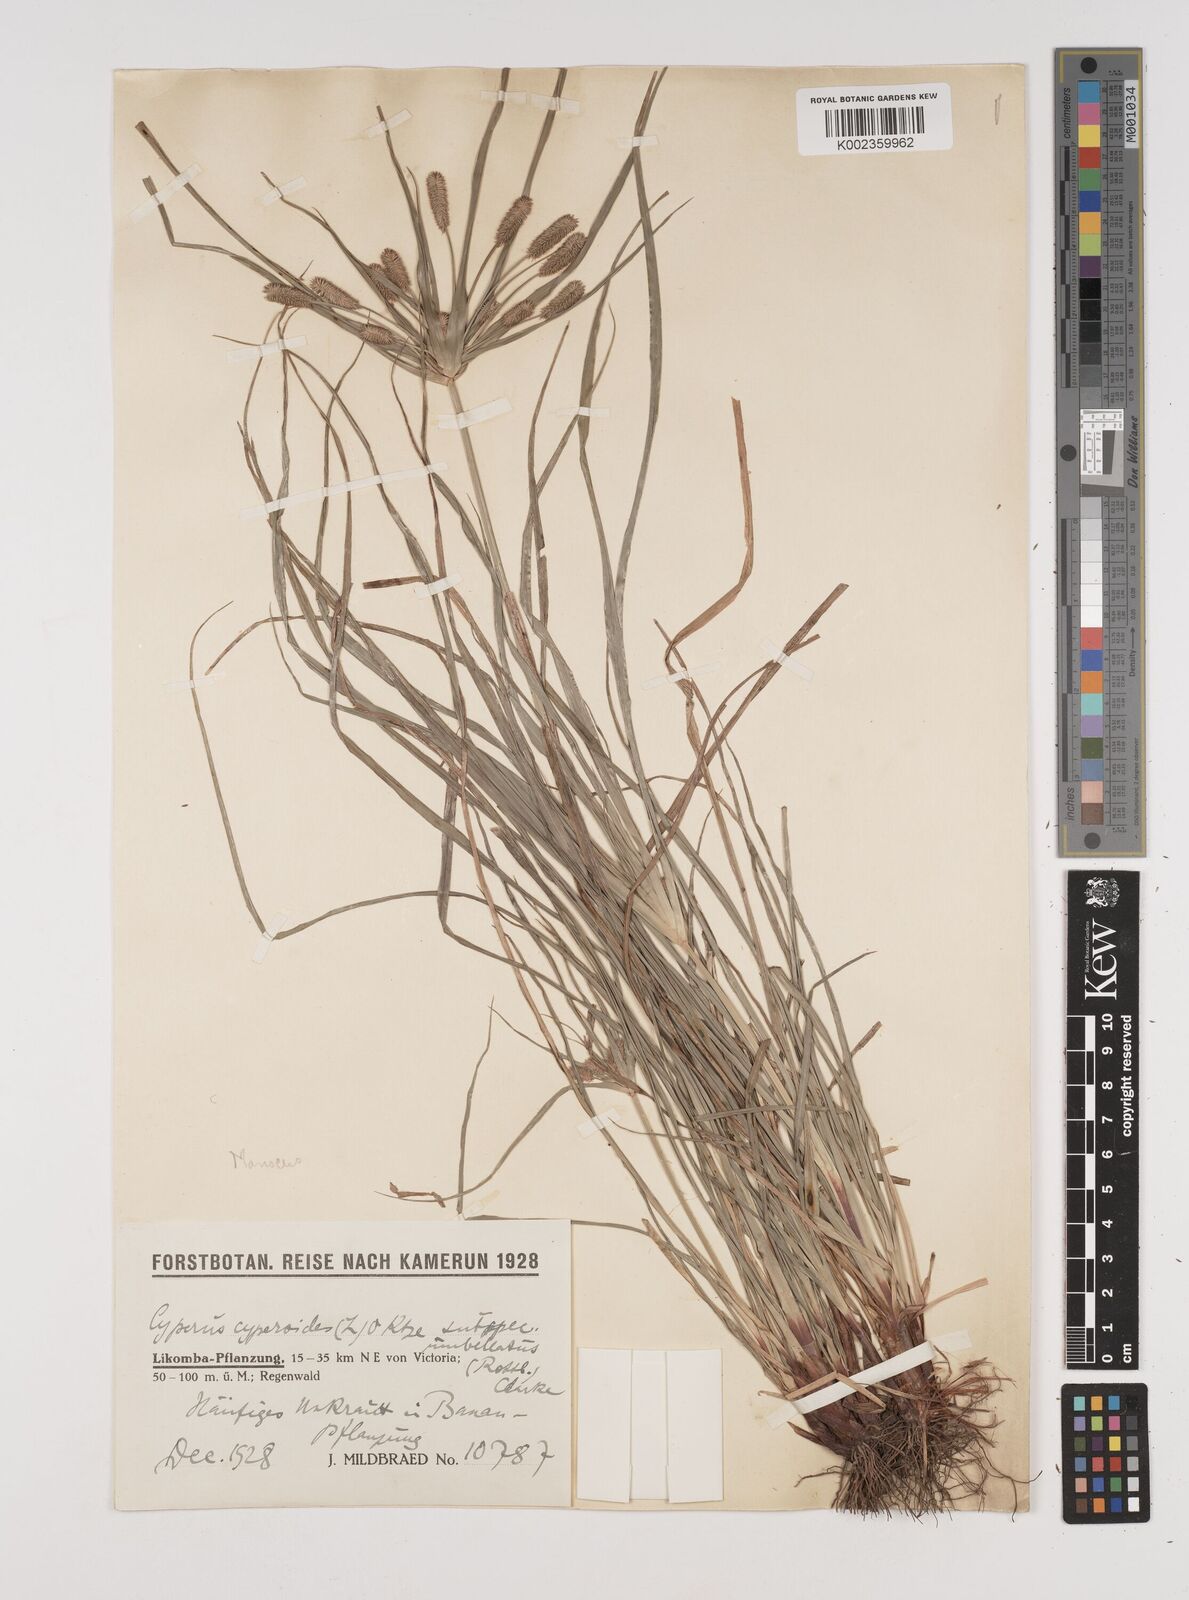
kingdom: Plantae
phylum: Tracheophyta
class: Liliopsida
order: Poales
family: Cyperaceae
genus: Cyperus
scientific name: Cyperus cyperoides
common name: Pacific island flat sedge
